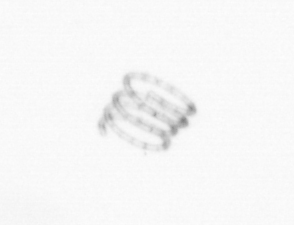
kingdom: Chromista
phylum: Ochrophyta
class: Bacillariophyceae
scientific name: Bacillariophyceae
